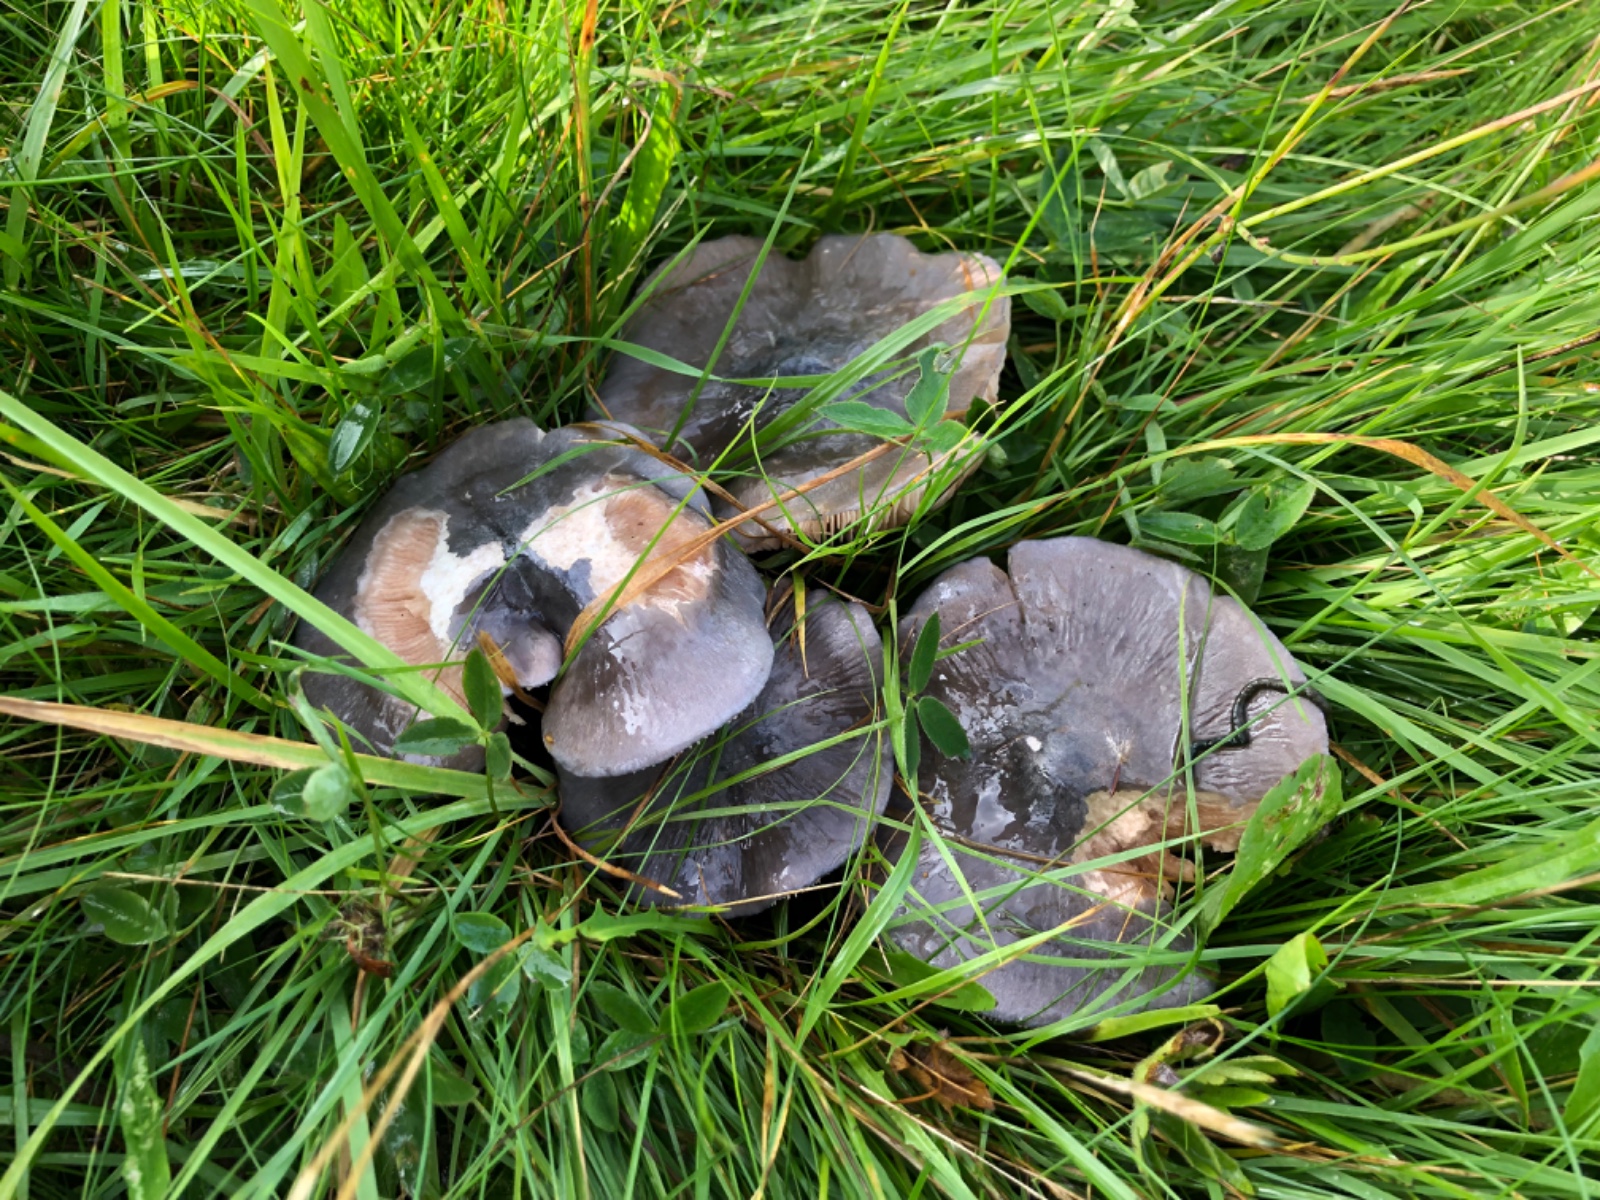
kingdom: Fungi
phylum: Basidiomycota
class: Agaricomycetes
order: Agaricales
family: Entolomataceae
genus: Entoloma
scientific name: Entoloma madidum
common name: indigo-rødblad
